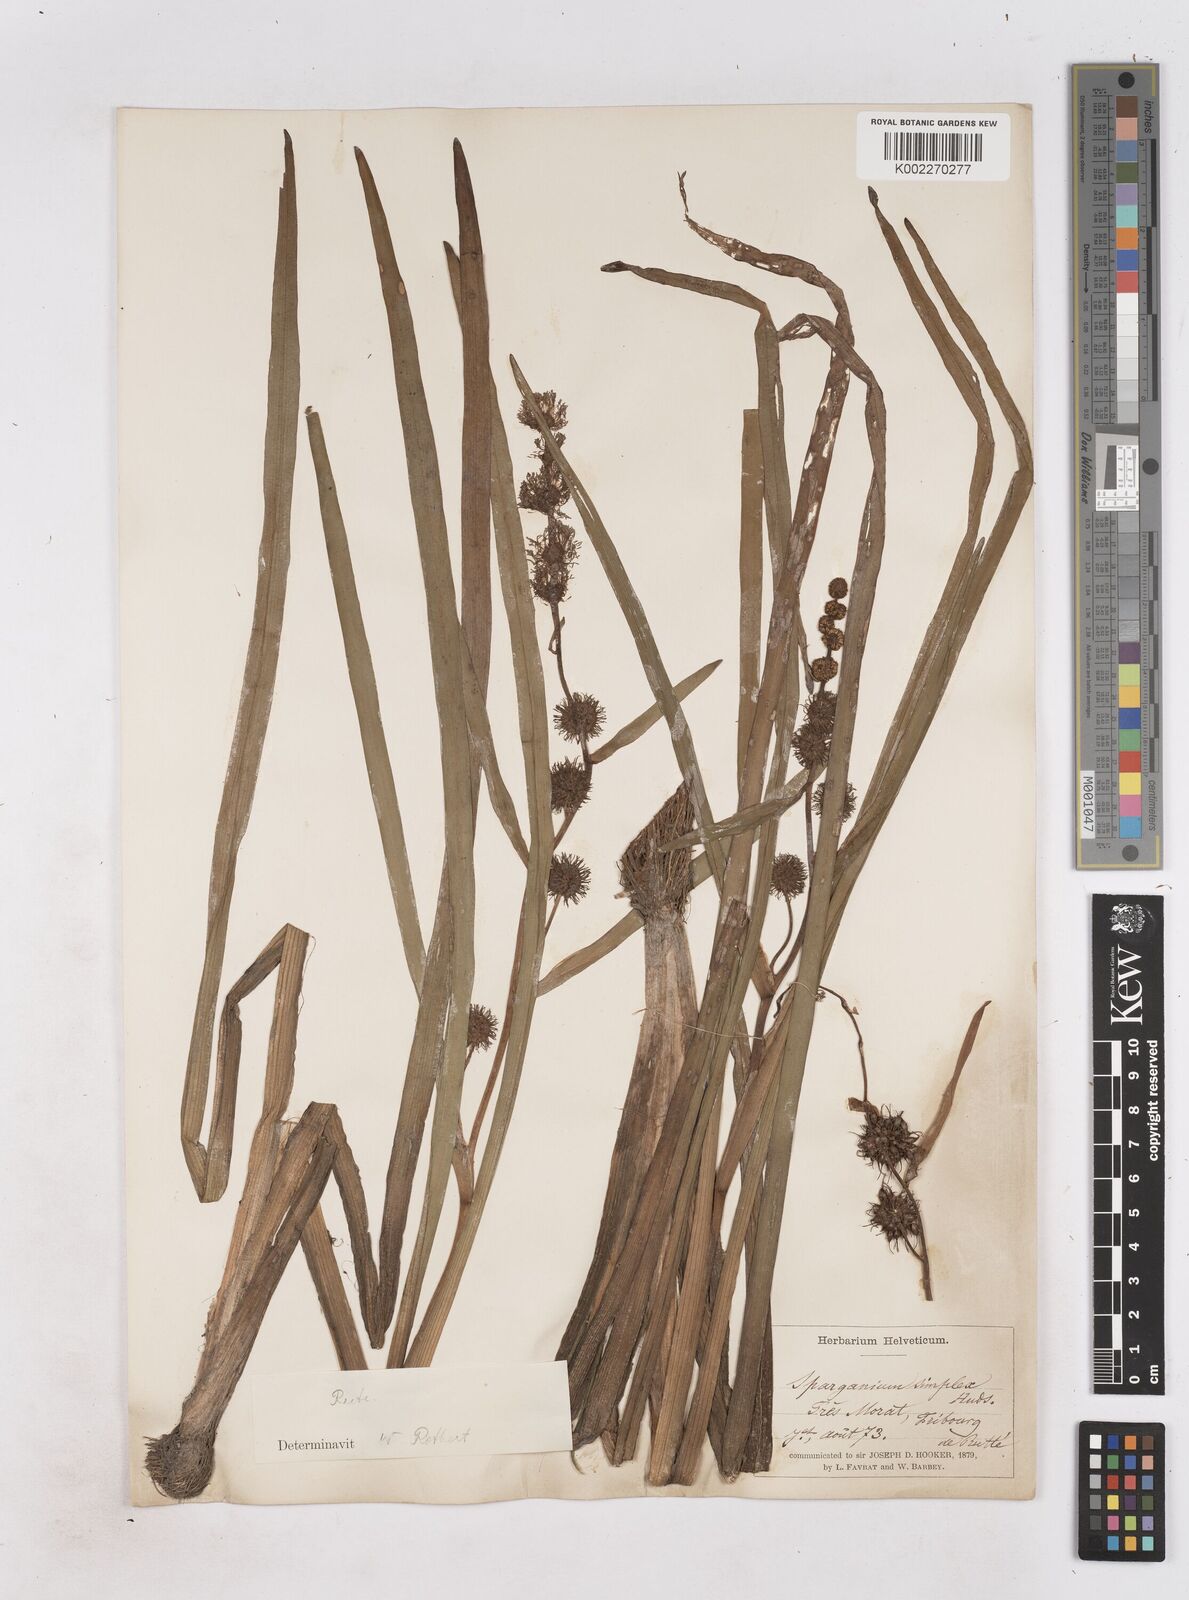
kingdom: Plantae
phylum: Tracheophyta
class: Liliopsida
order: Poales
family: Typhaceae
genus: Sparganium
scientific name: Sparganium emersum
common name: Unbranched bur-reed
